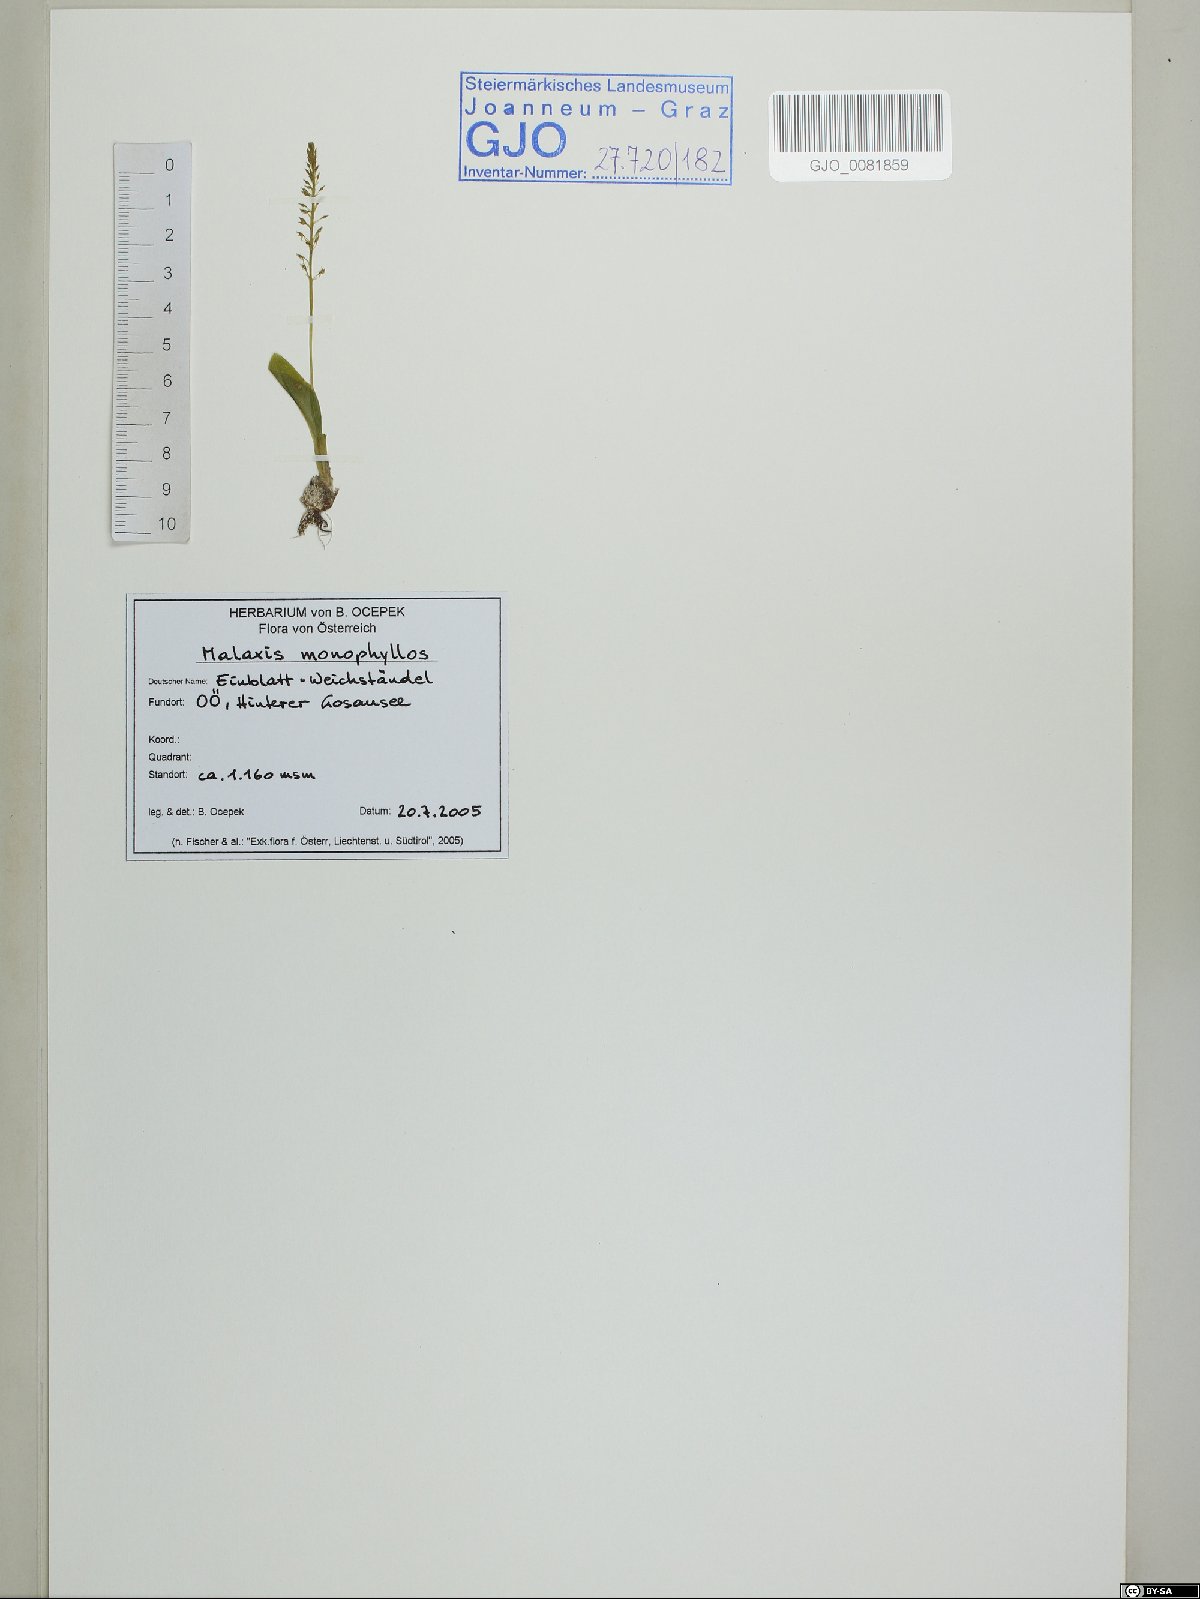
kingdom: Plantae
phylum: Tracheophyta
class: Liliopsida
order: Asparagales
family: Orchidaceae
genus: Malaxis
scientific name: Malaxis monophyllos
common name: White adder's-mouth
